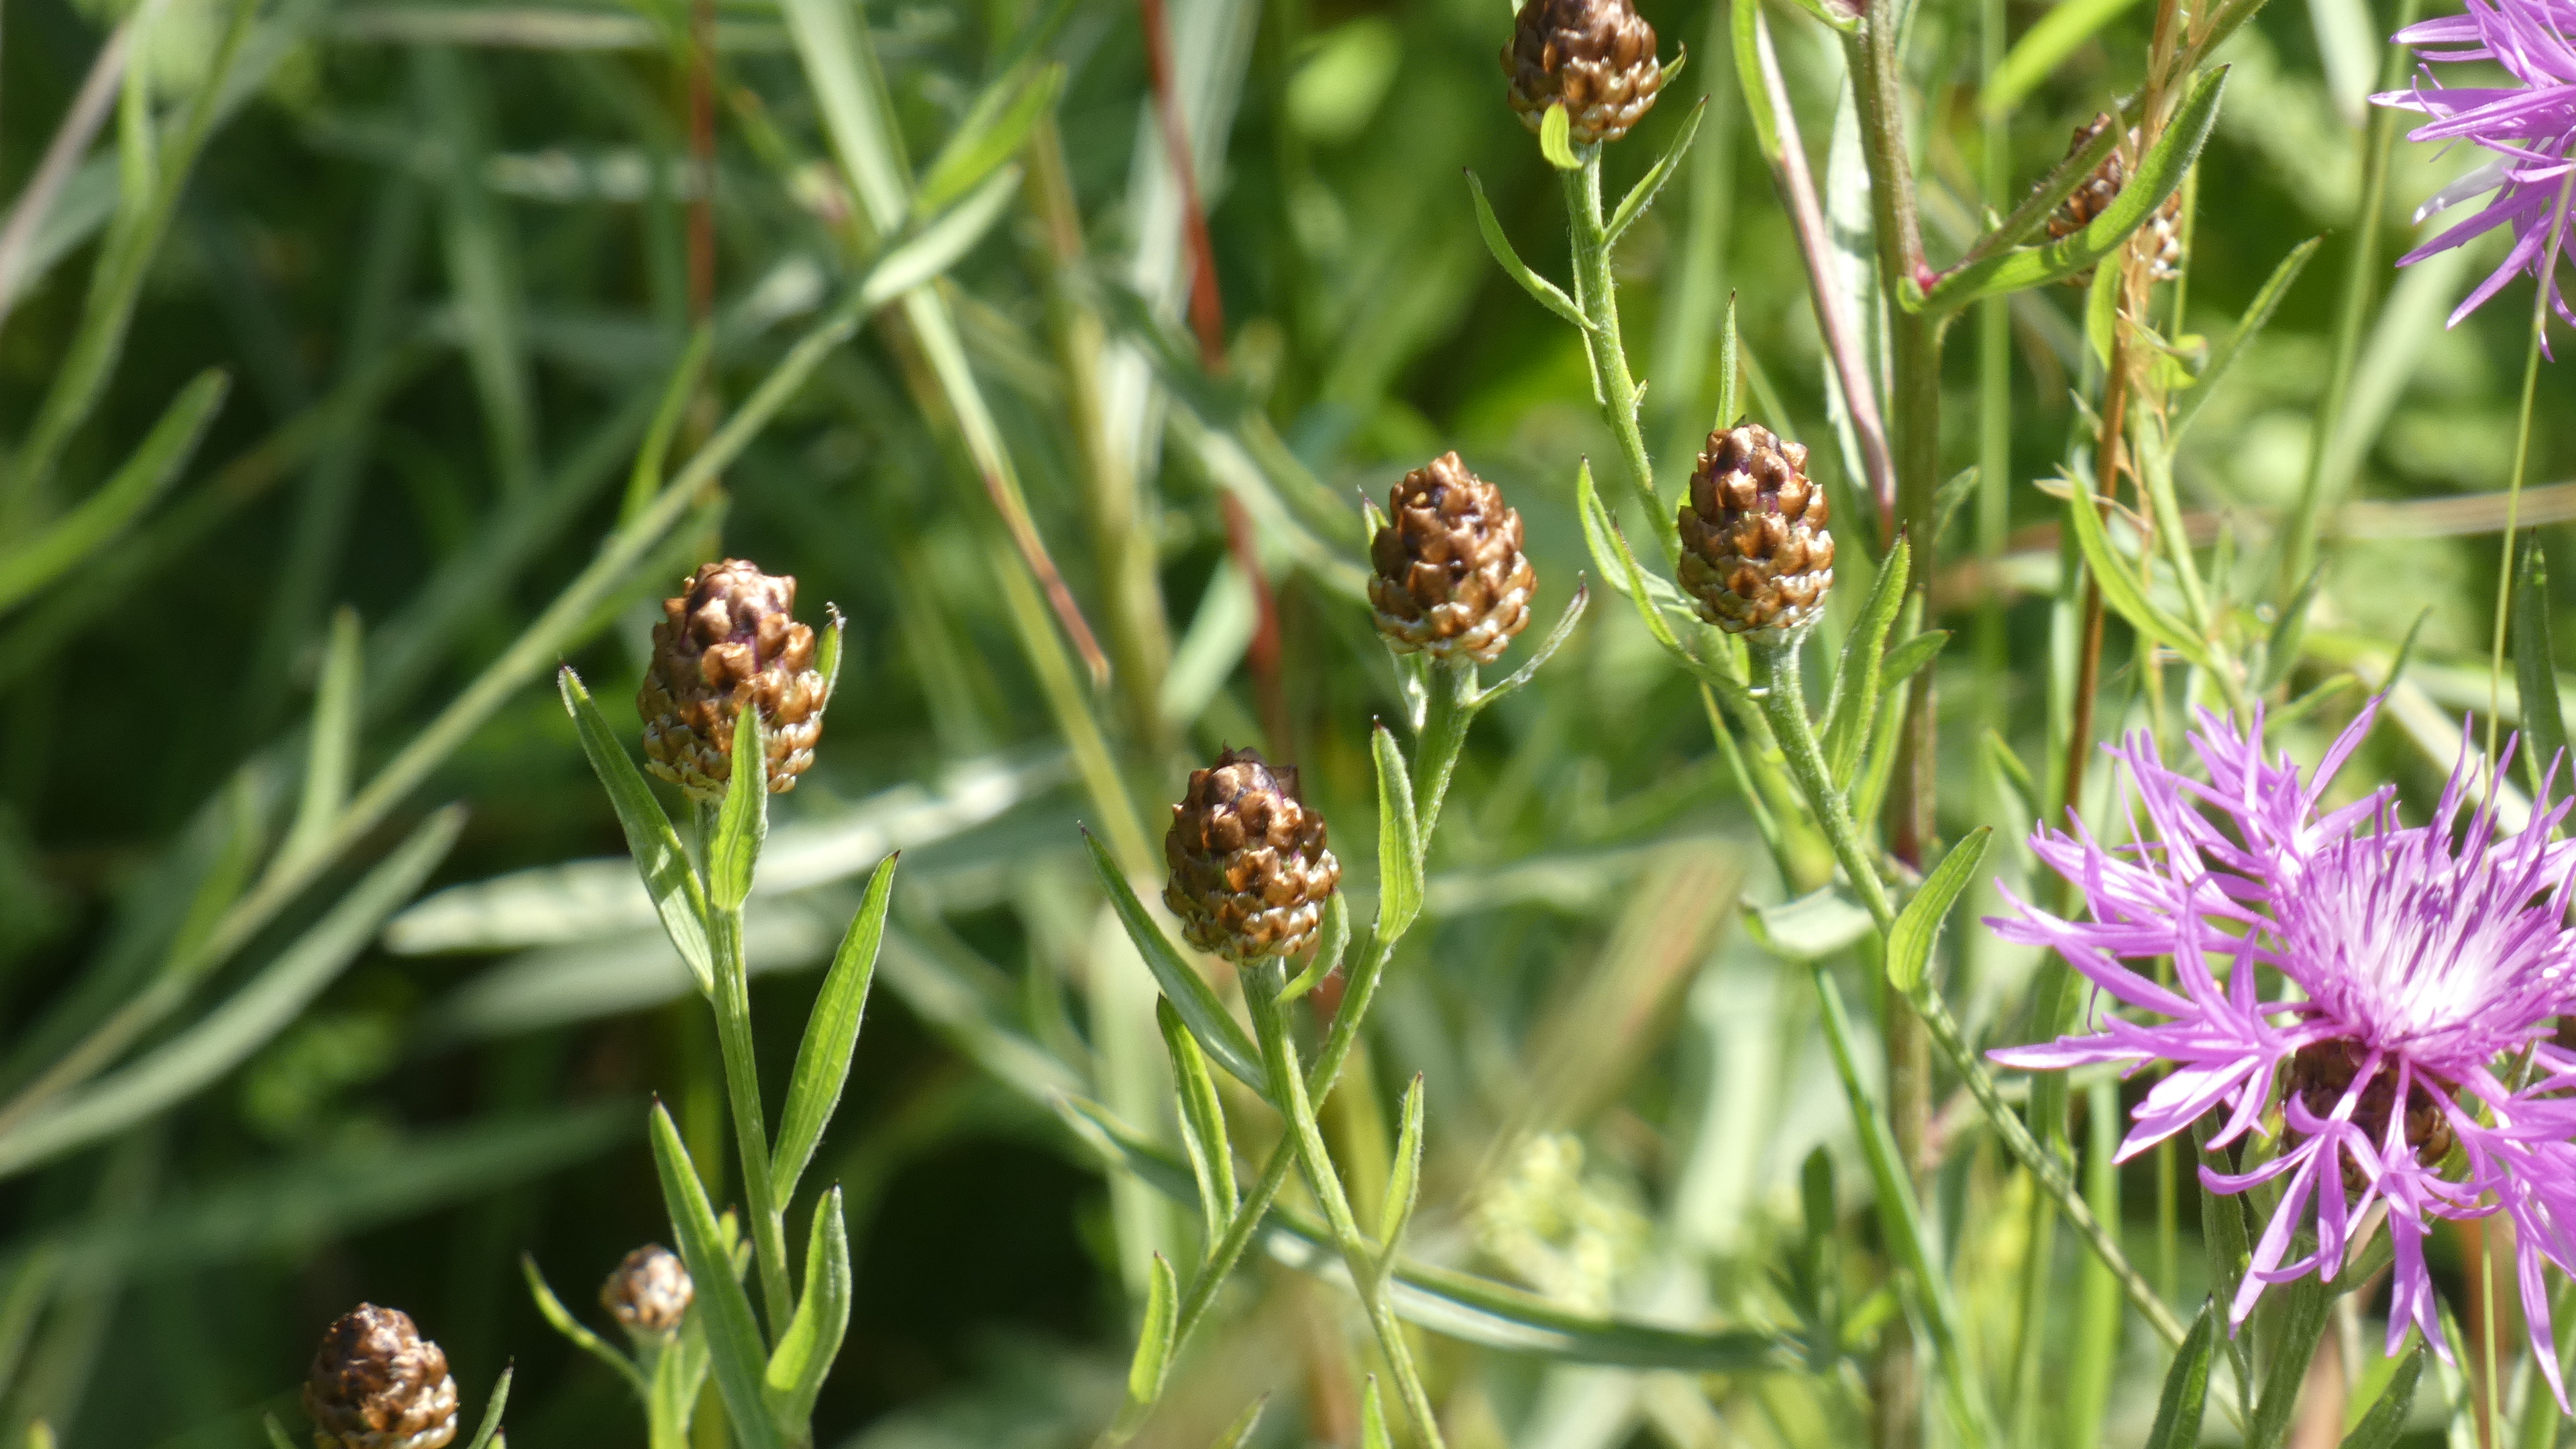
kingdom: Plantae
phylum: Tracheophyta
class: Magnoliopsida
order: Asterales
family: Asteraceae
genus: Centaurea
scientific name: Centaurea jacea
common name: Almindelig knopurt
